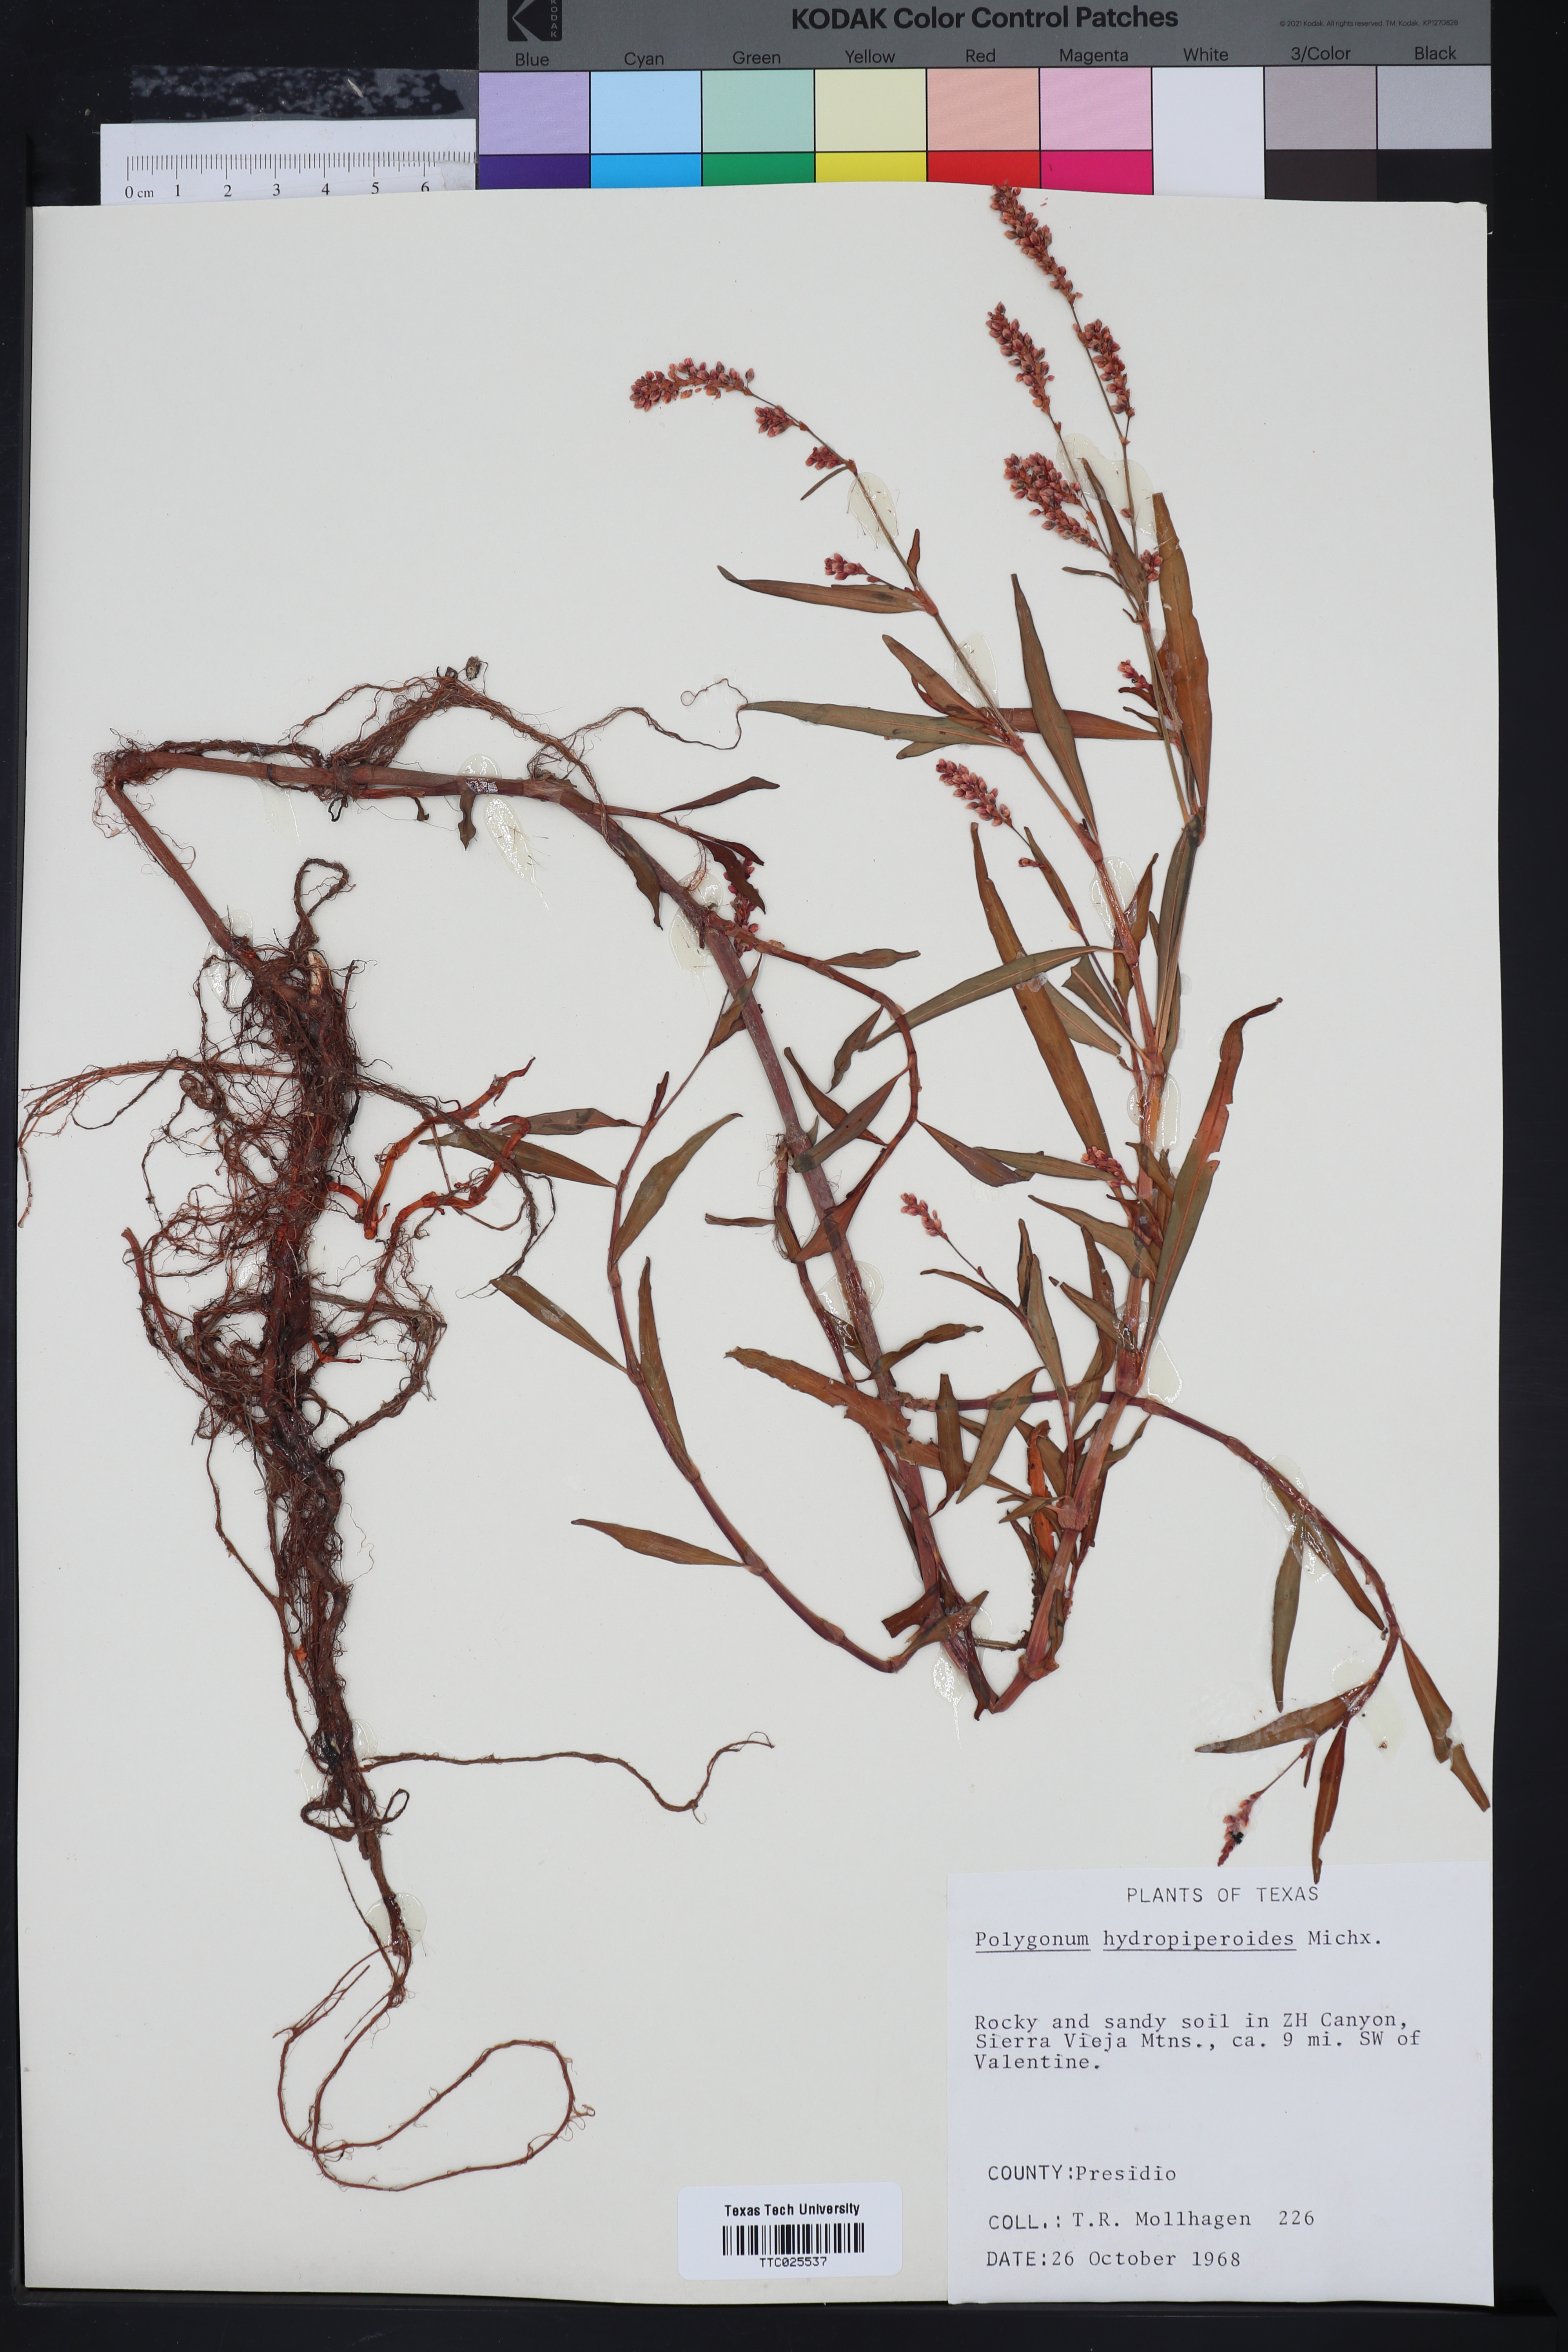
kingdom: Plantae
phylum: Tracheophyta
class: Magnoliopsida
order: Caryophyllales
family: Polygonaceae
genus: Persicaria
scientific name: Persicaria hydropiperoides
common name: Swamp smartweed
